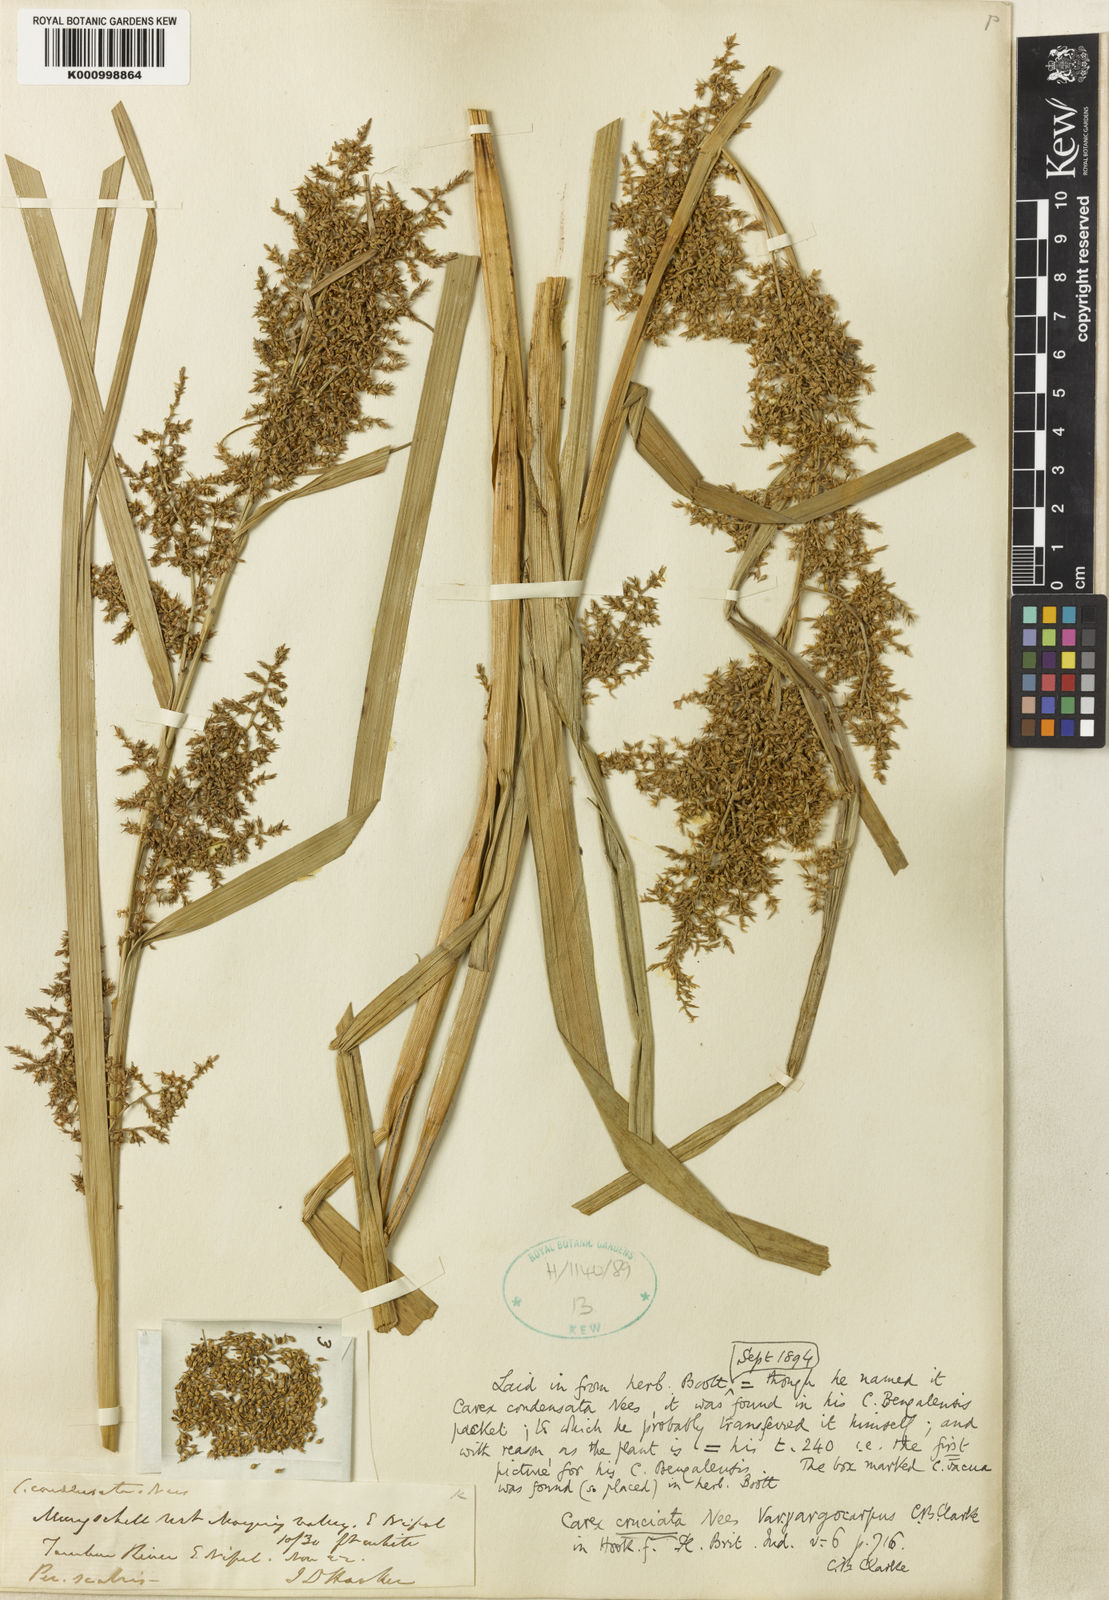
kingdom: Plantae
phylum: Tracheophyta
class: Liliopsida
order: Poales
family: Cyperaceae
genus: Carex
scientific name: Carex cruciata
